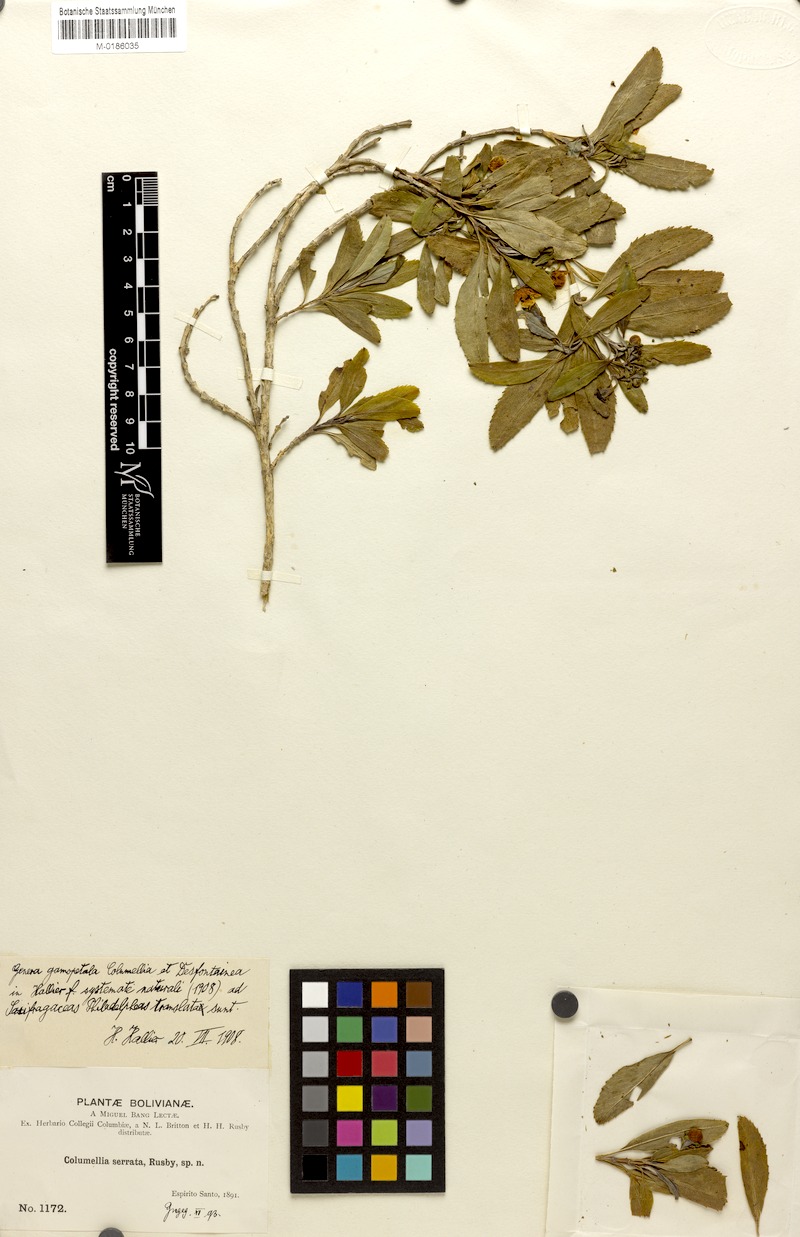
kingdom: Plantae
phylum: Tracheophyta
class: Magnoliopsida
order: Bruniales
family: Columelliaceae
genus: Columellia
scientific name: Columellia oblonga
